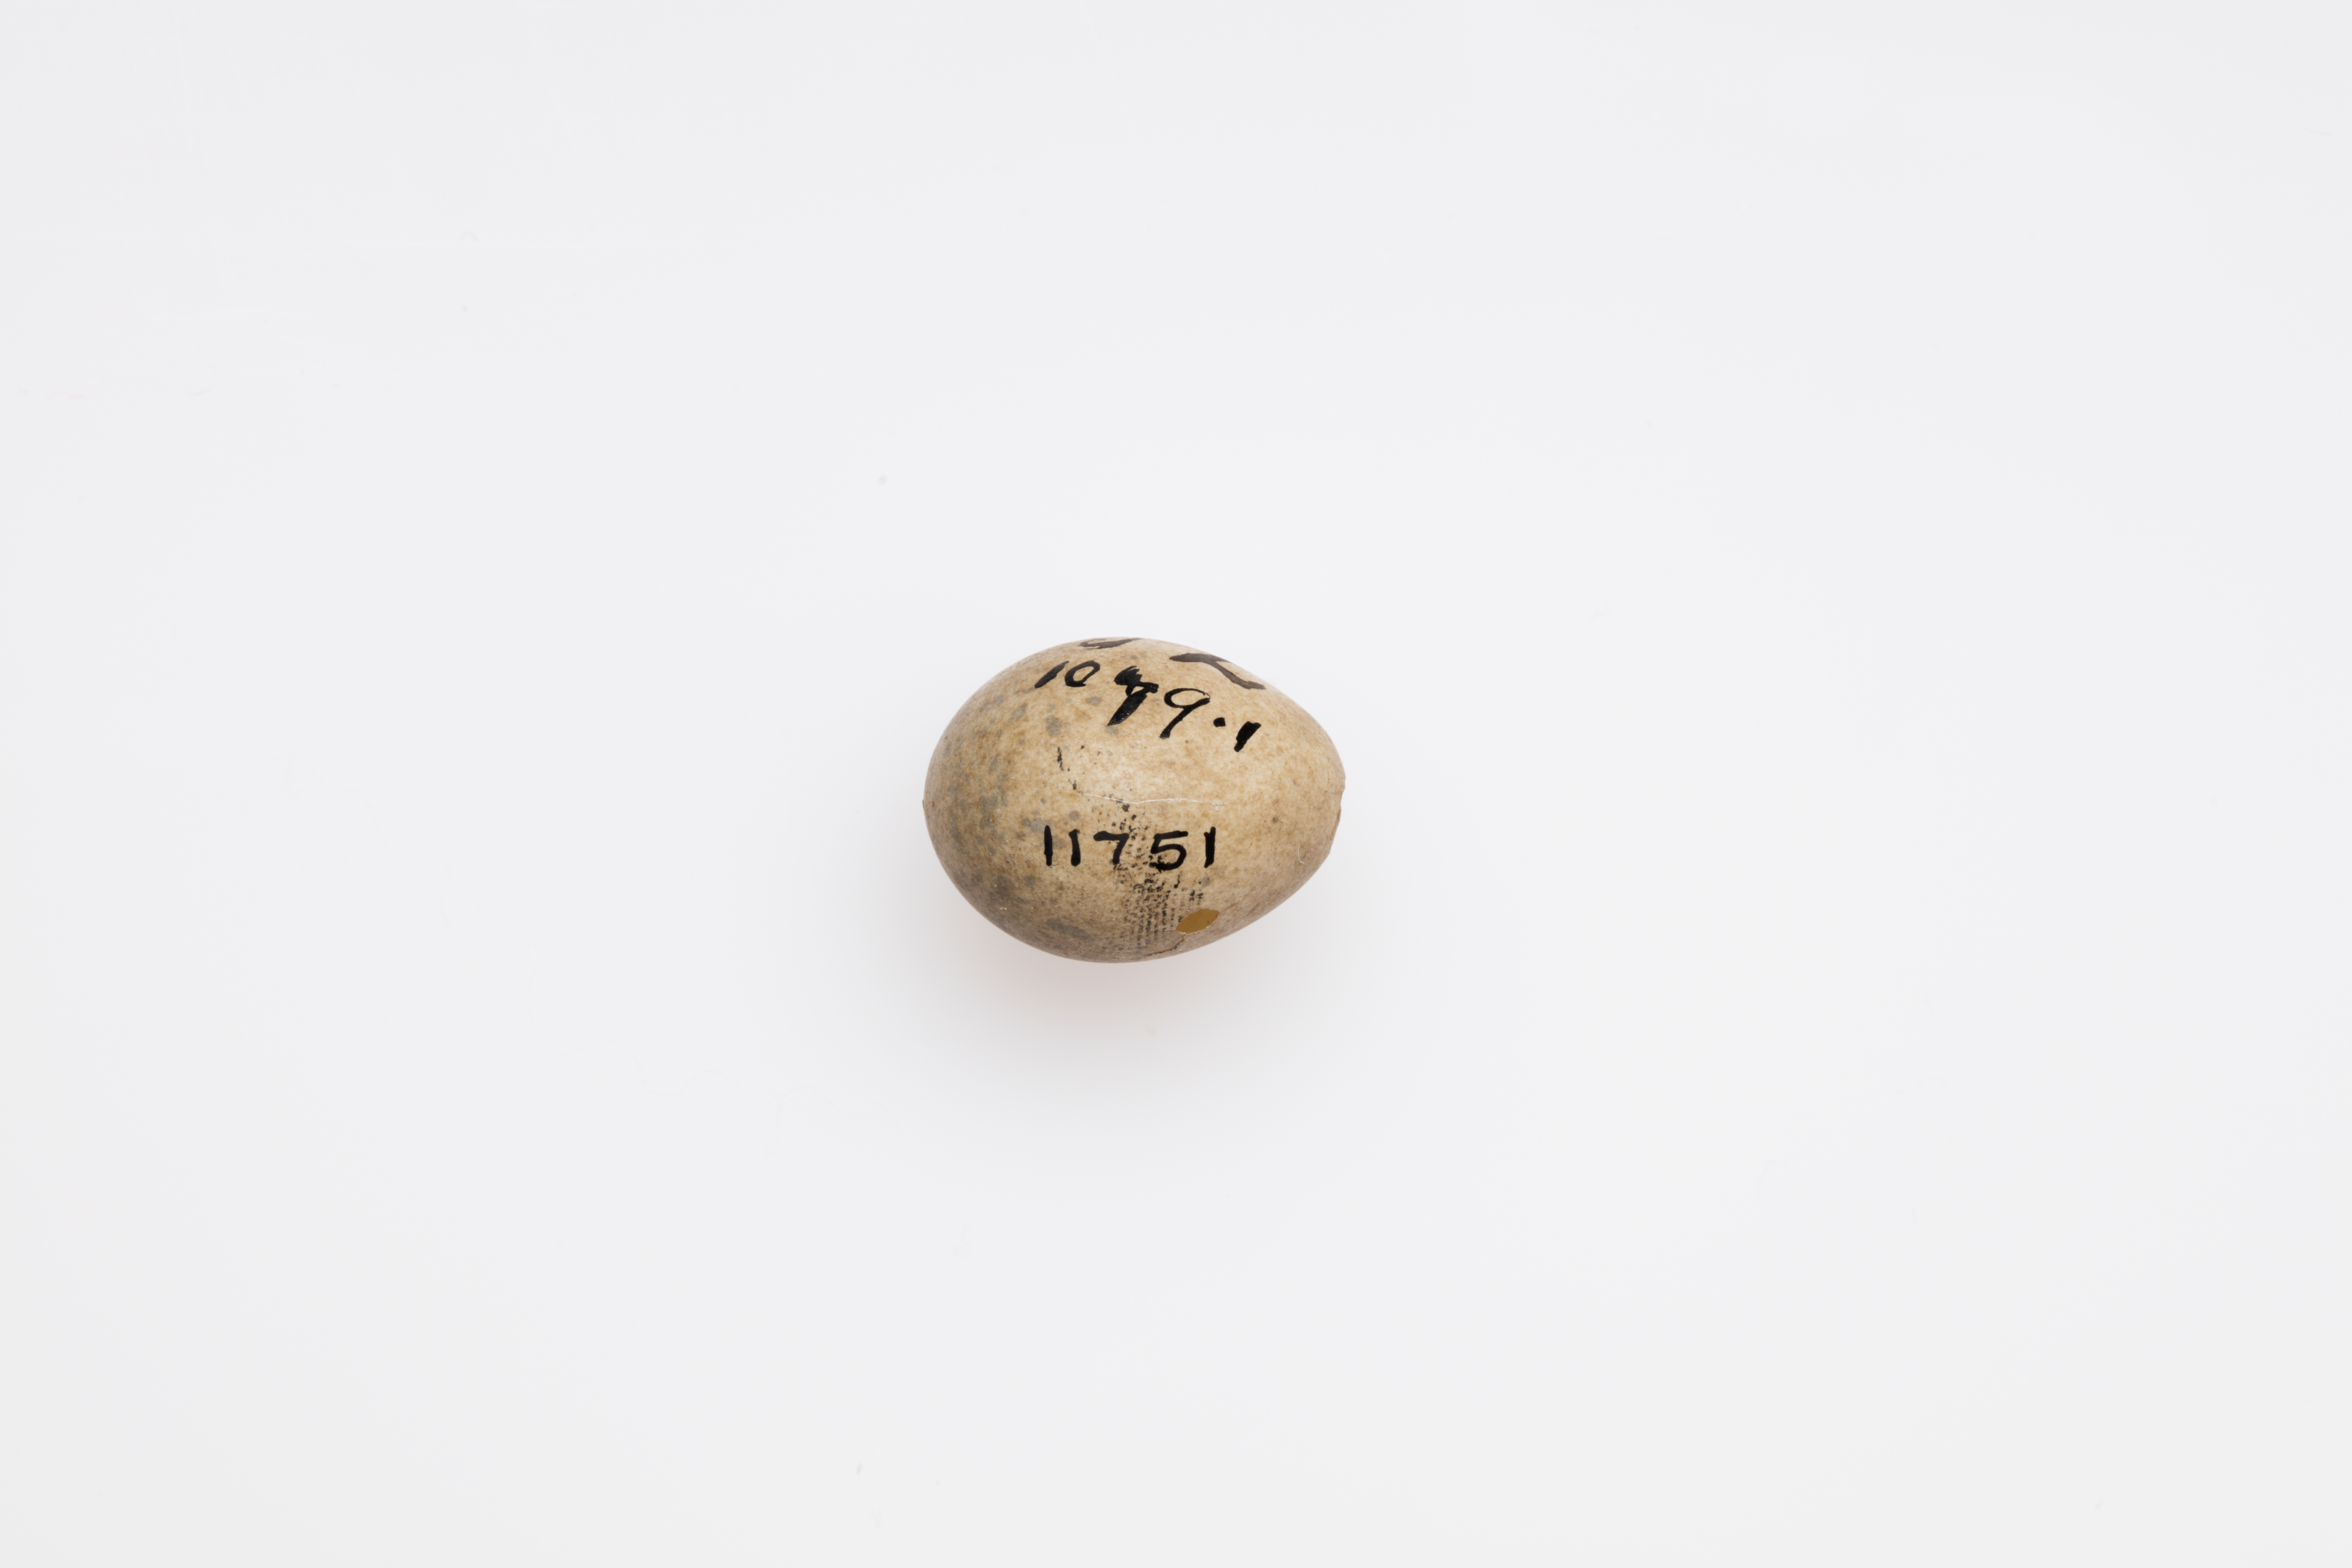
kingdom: Animalia
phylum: Chordata
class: Aves
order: Passeriformes
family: Sylviidae
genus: Sylvia
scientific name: Sylvia communis
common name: Common whitethroat
